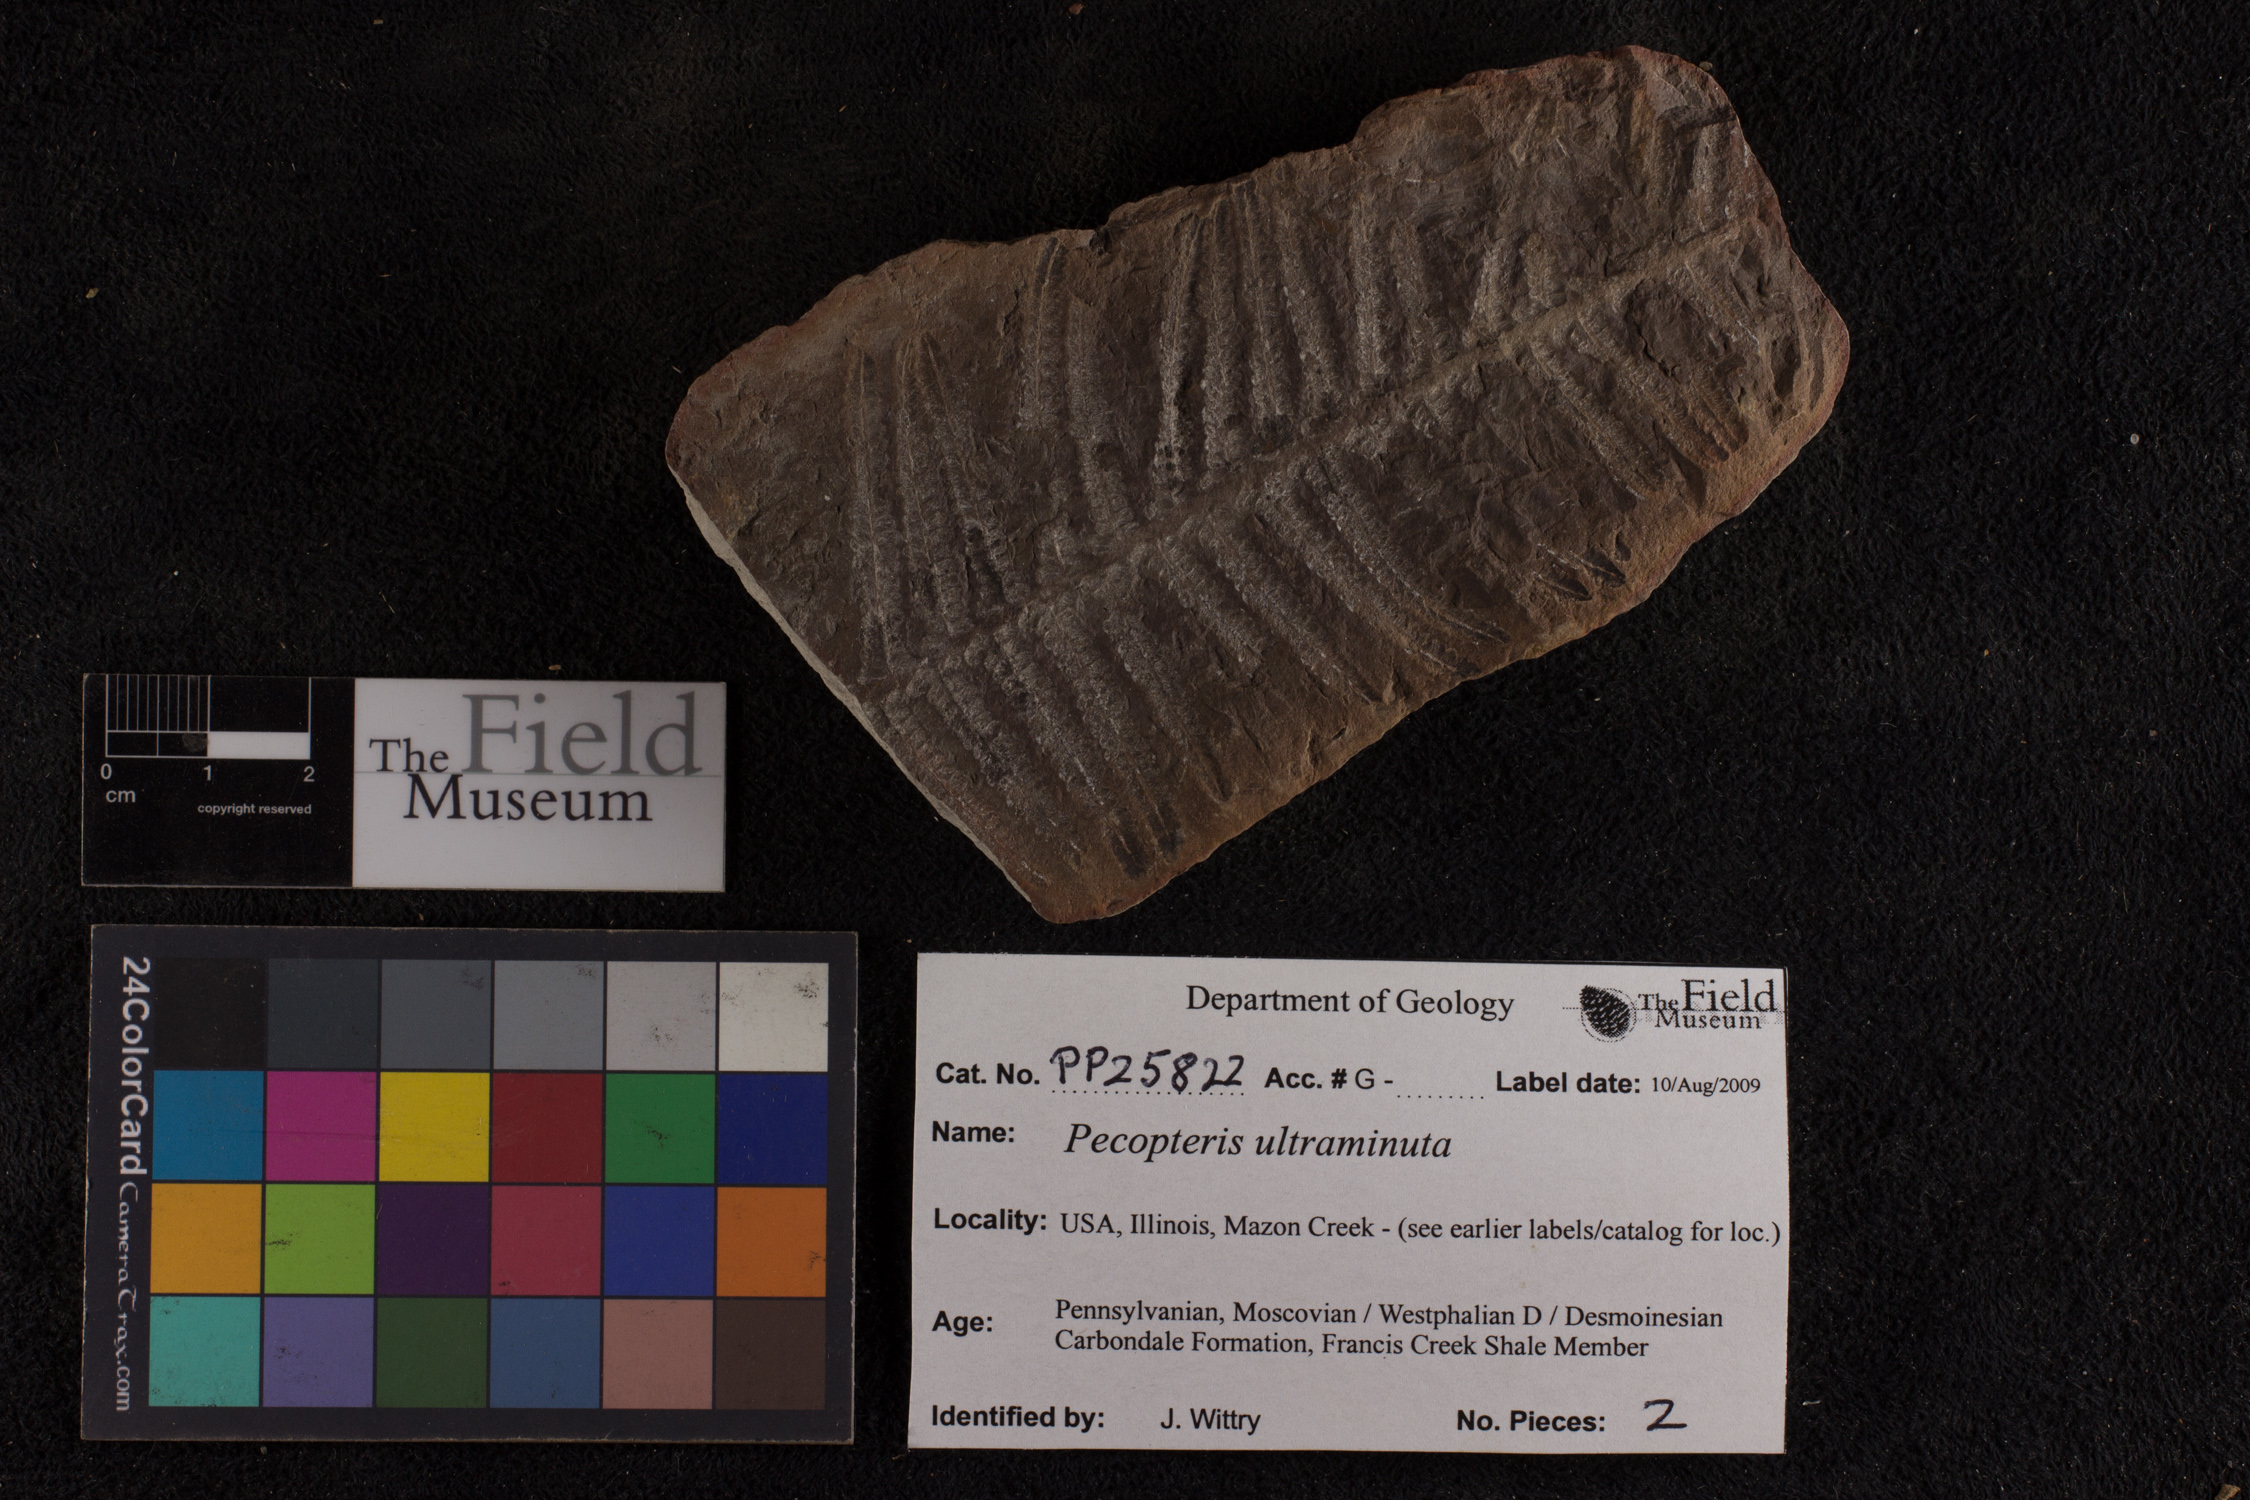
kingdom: Plantae
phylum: Tracheophyta
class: Polypodiopsida
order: Marattiales
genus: Cyathocarpus
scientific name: Cyathocarpus
